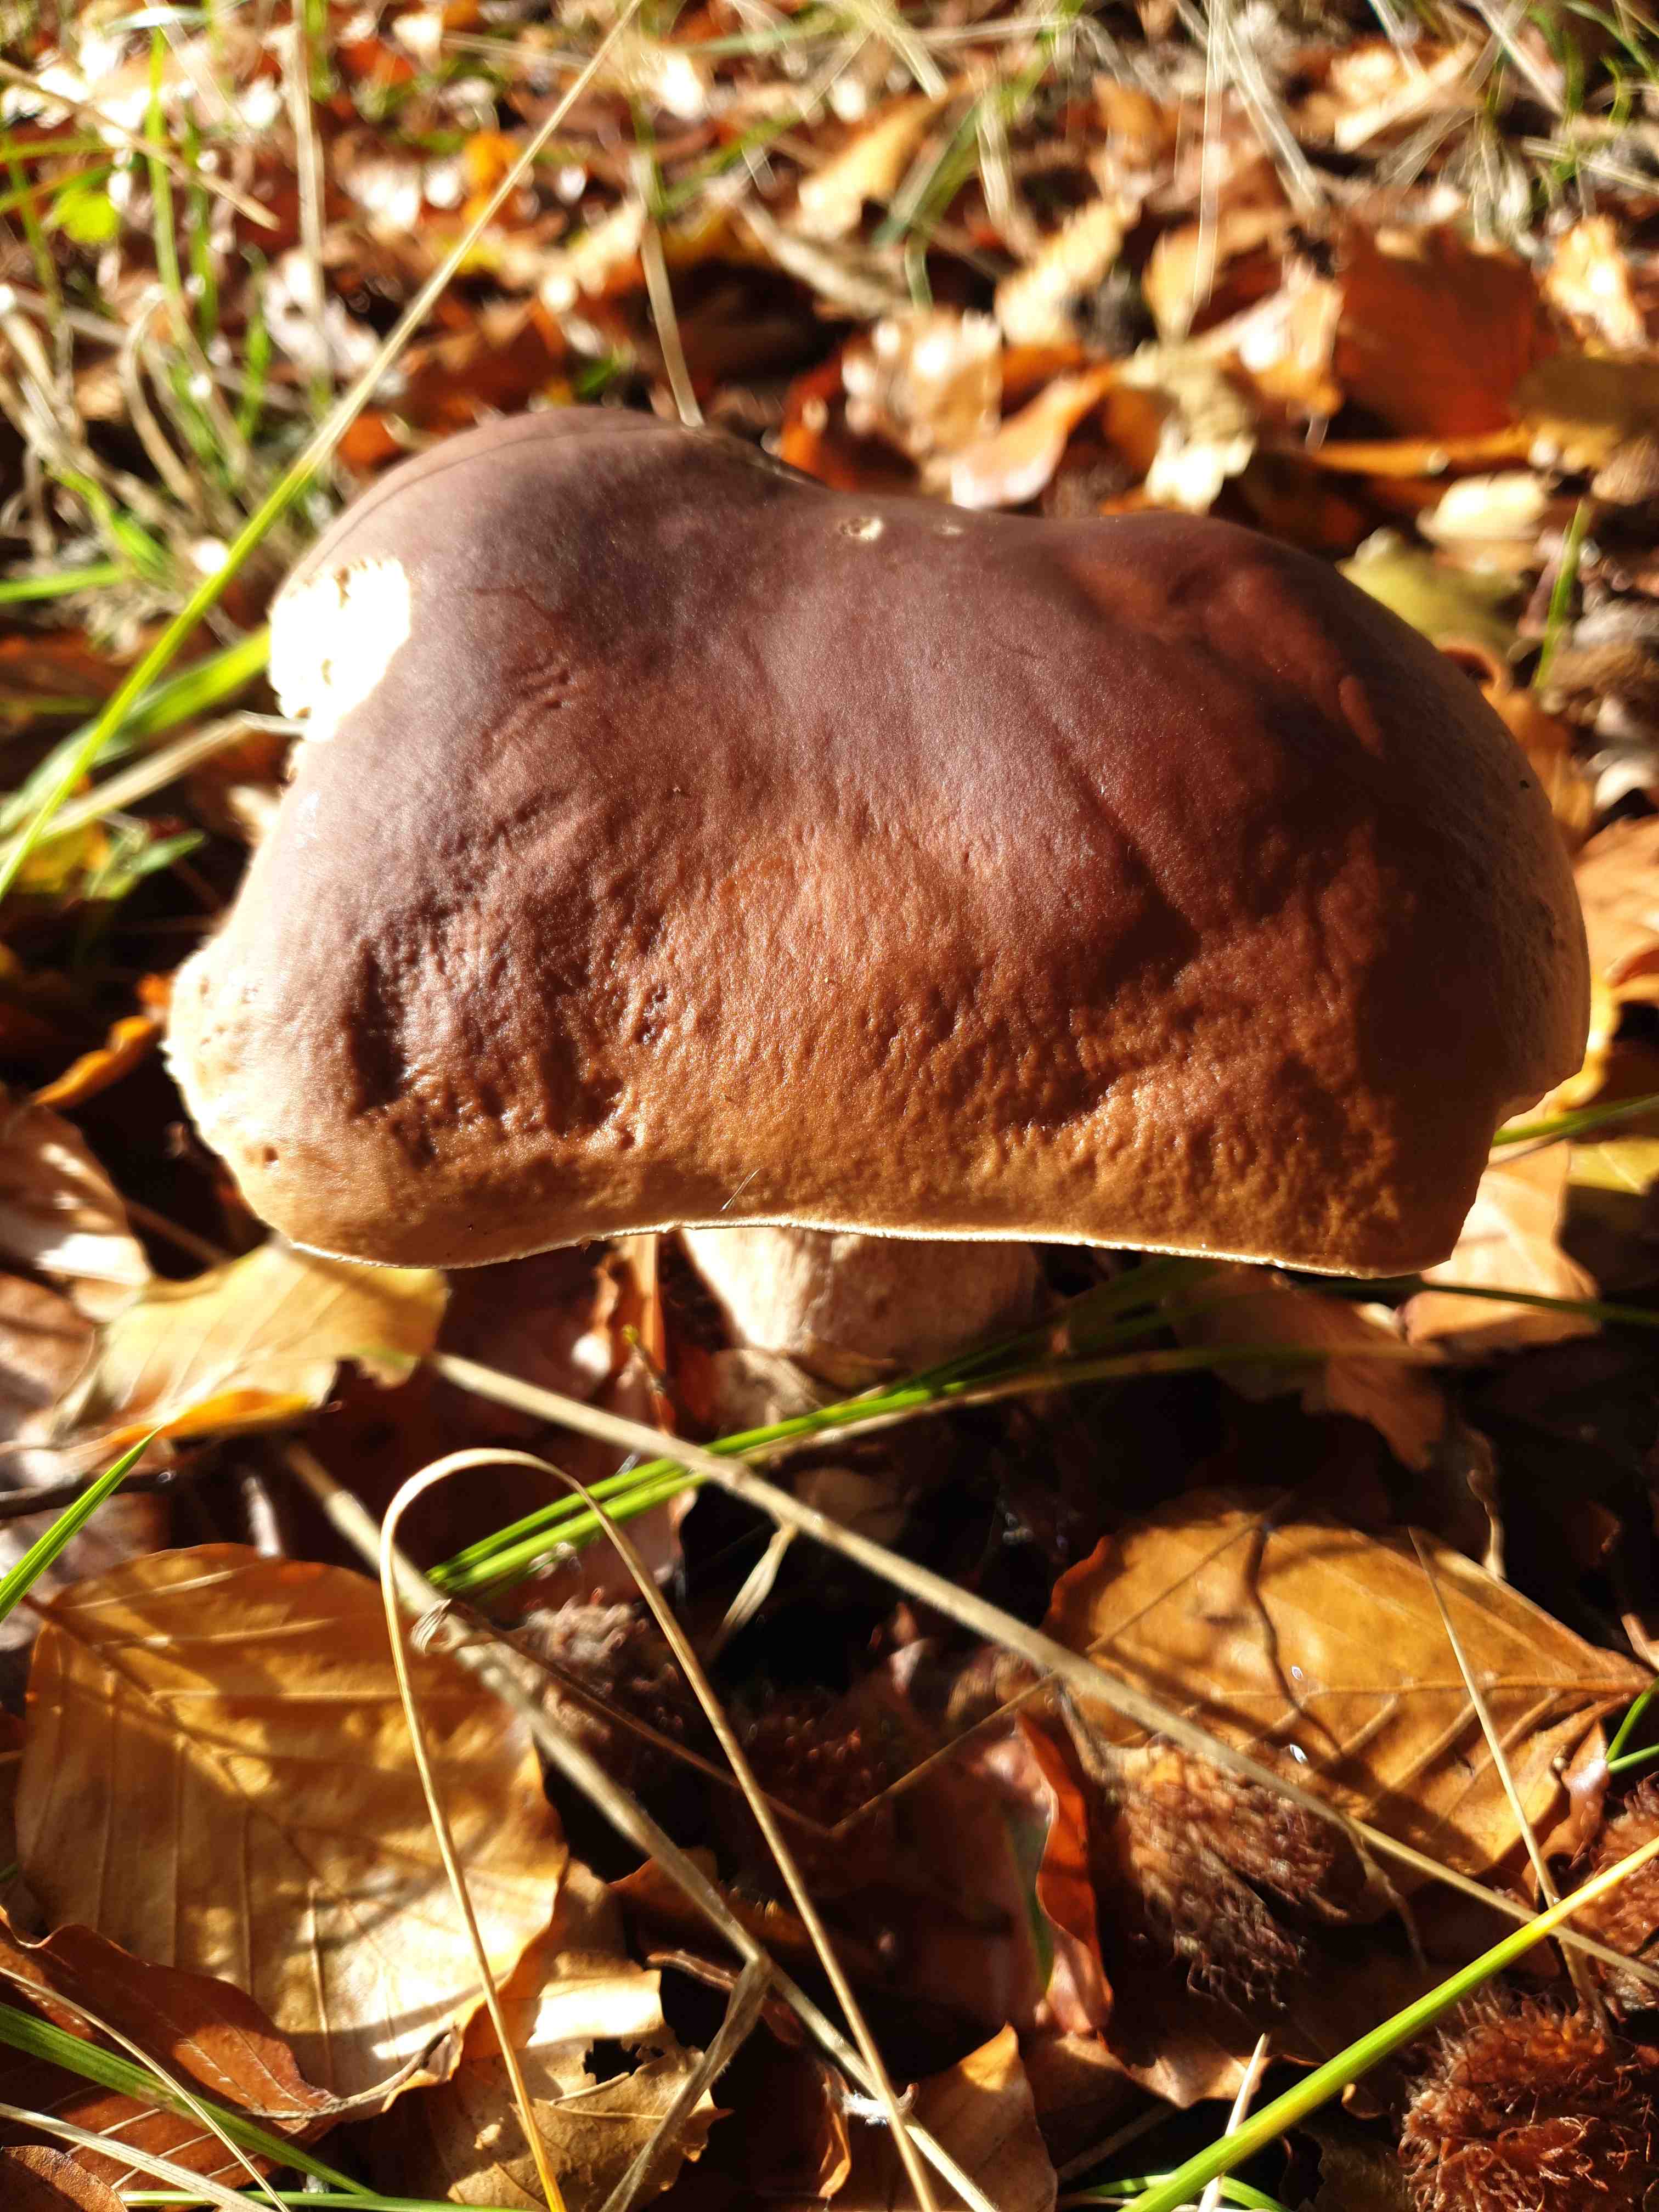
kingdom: Fungi
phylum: Basidiomycota
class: Agaricomycetes
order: Boletales
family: Boletaceae
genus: Boletus
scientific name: Boletus edulis
